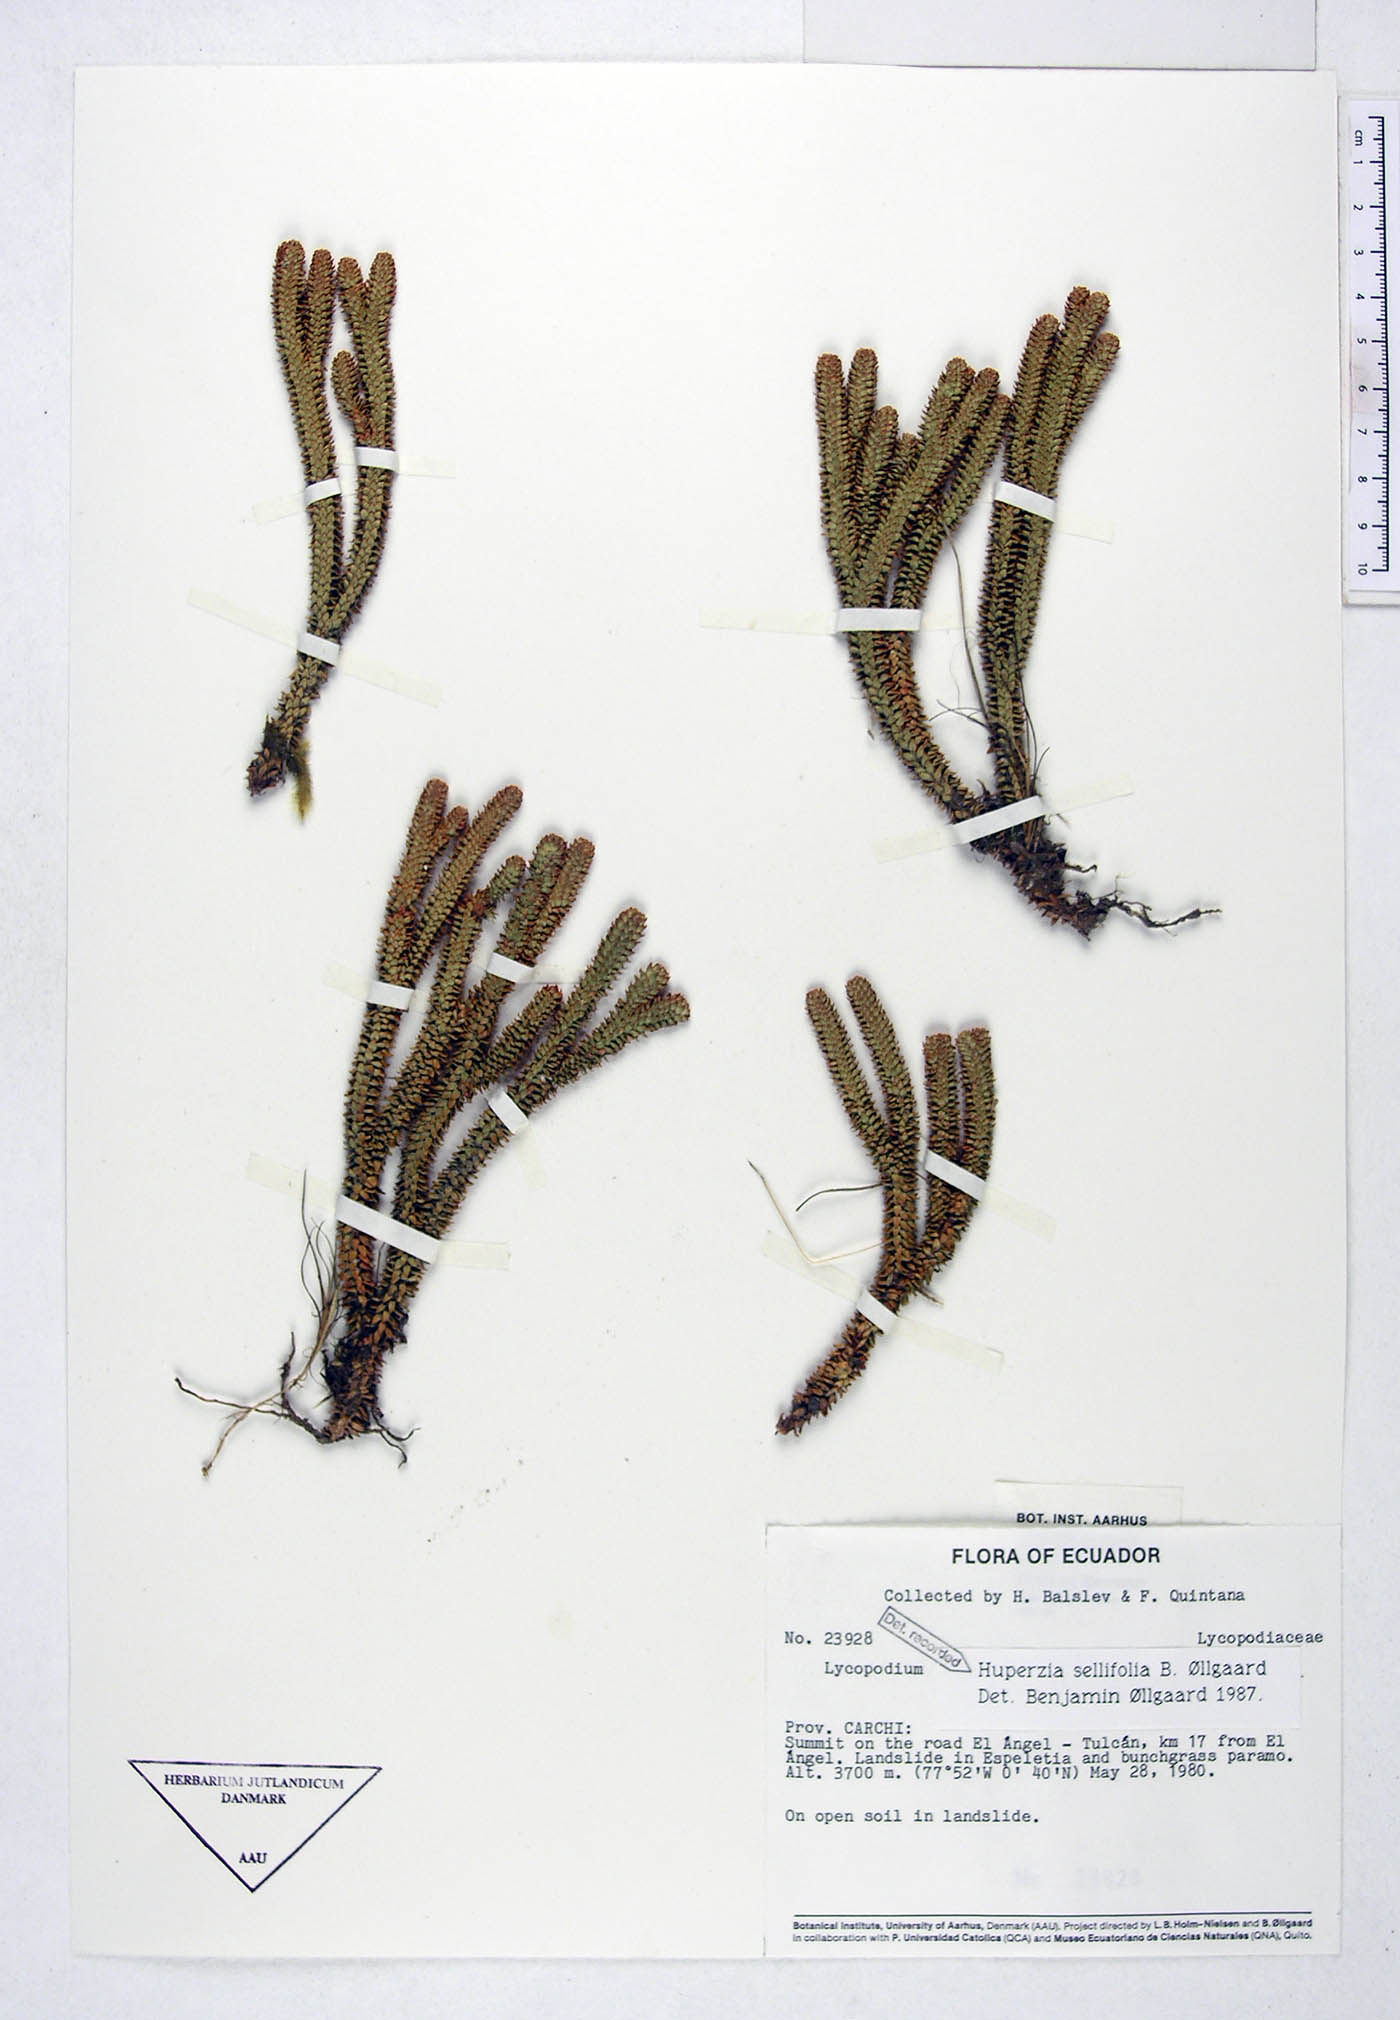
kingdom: Plantae
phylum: Tracheophyta
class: Lycopodiopsida
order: Lycopodiales
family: Lycopodiaceae
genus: Phlegmariurus
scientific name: Phlegmariurus sellifolius
